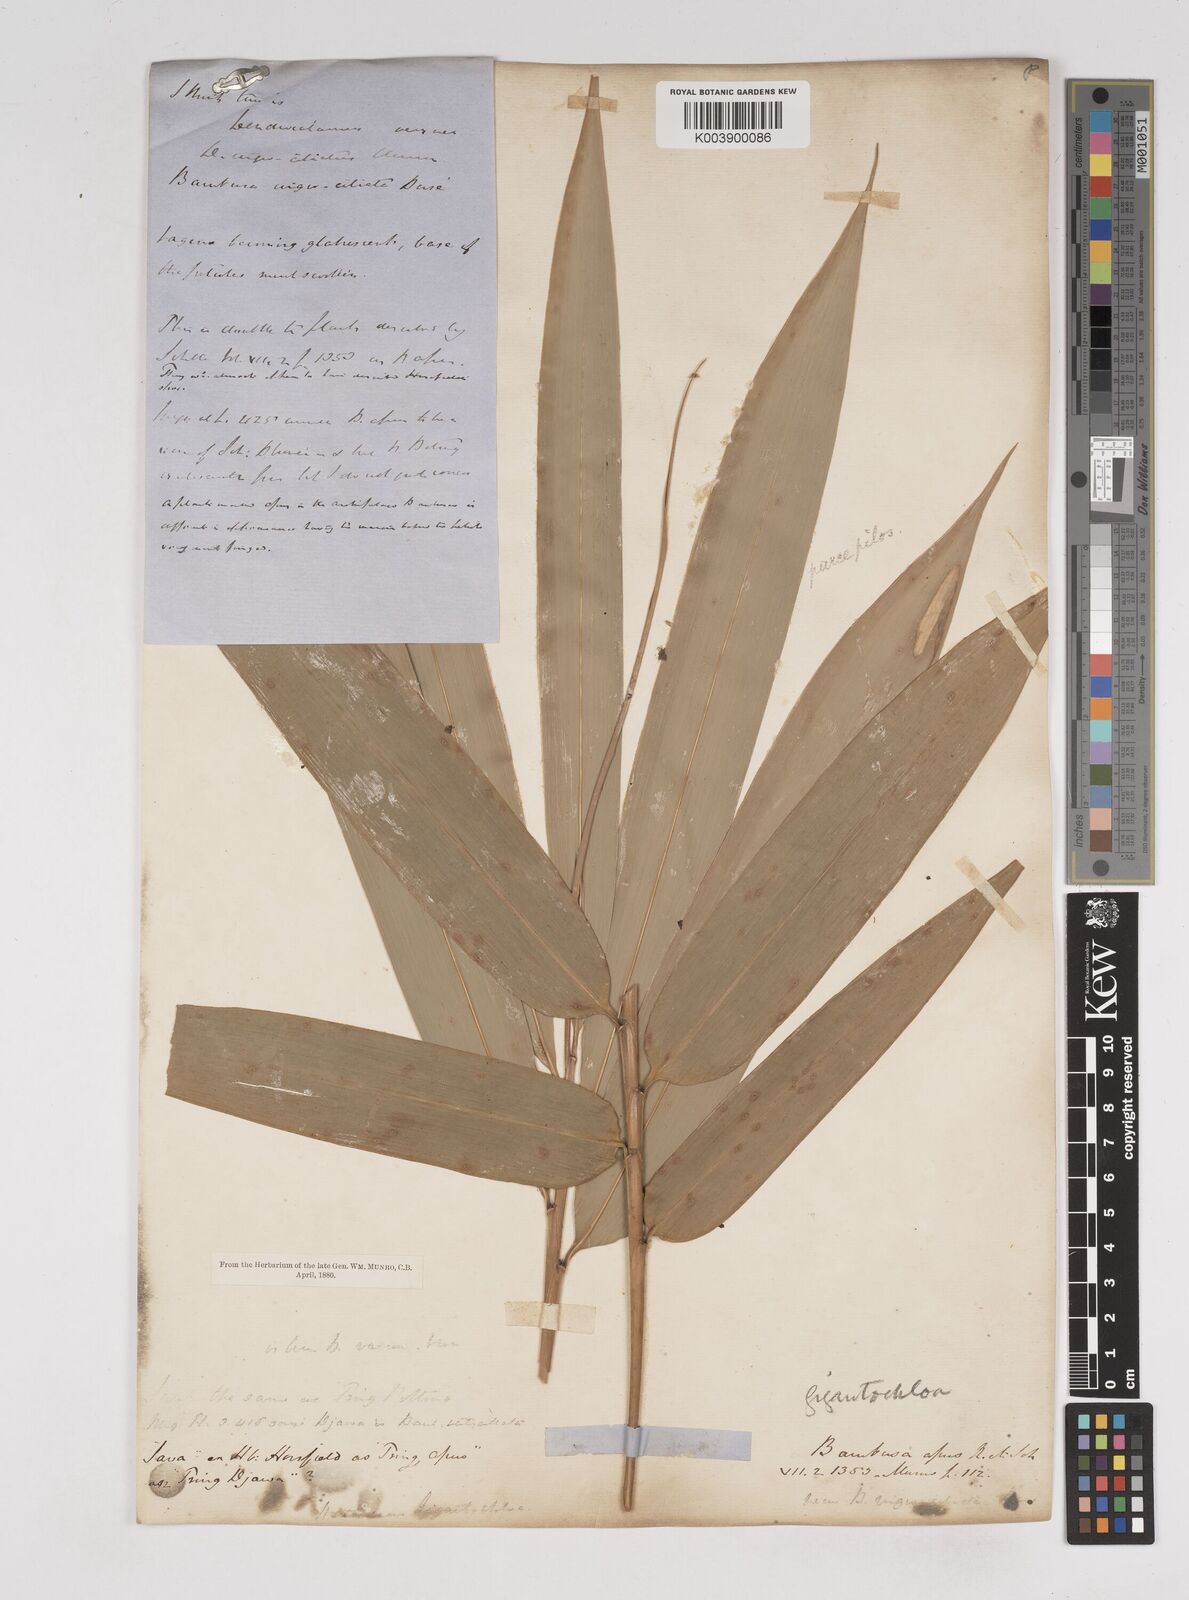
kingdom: Plantae
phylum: Tracheophyta
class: Liliopsida
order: Poales
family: Poaceae
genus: Gigantochloa
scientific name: Gigantochloa apus
